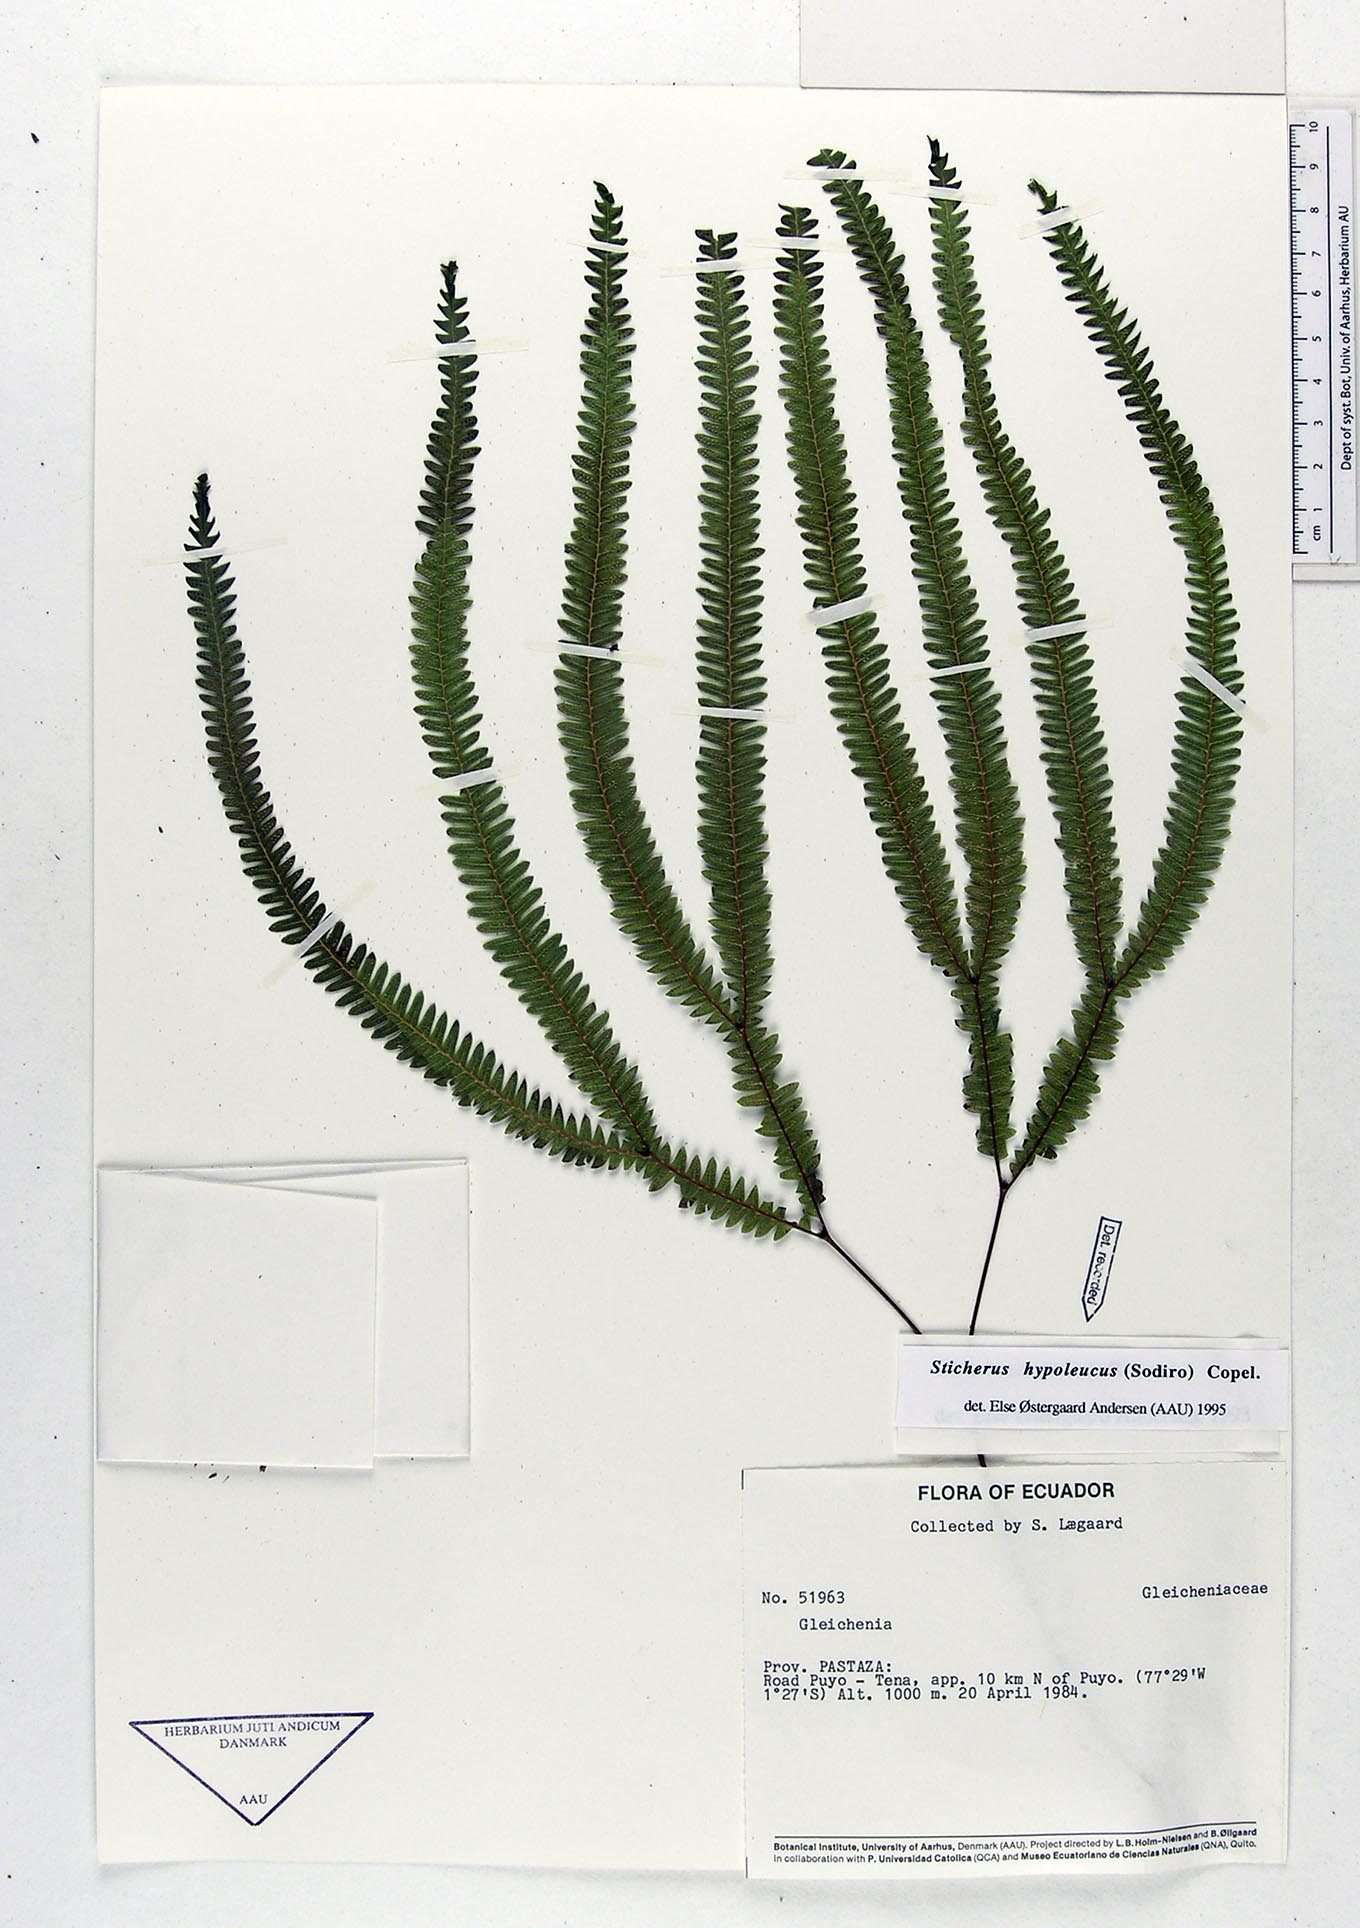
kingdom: Plantae
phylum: Tracheophyta
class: Polypodiopsida
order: Gleicheniales
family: Gleicheniaceae
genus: Sticherus
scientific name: Sticherus hypoleucus
